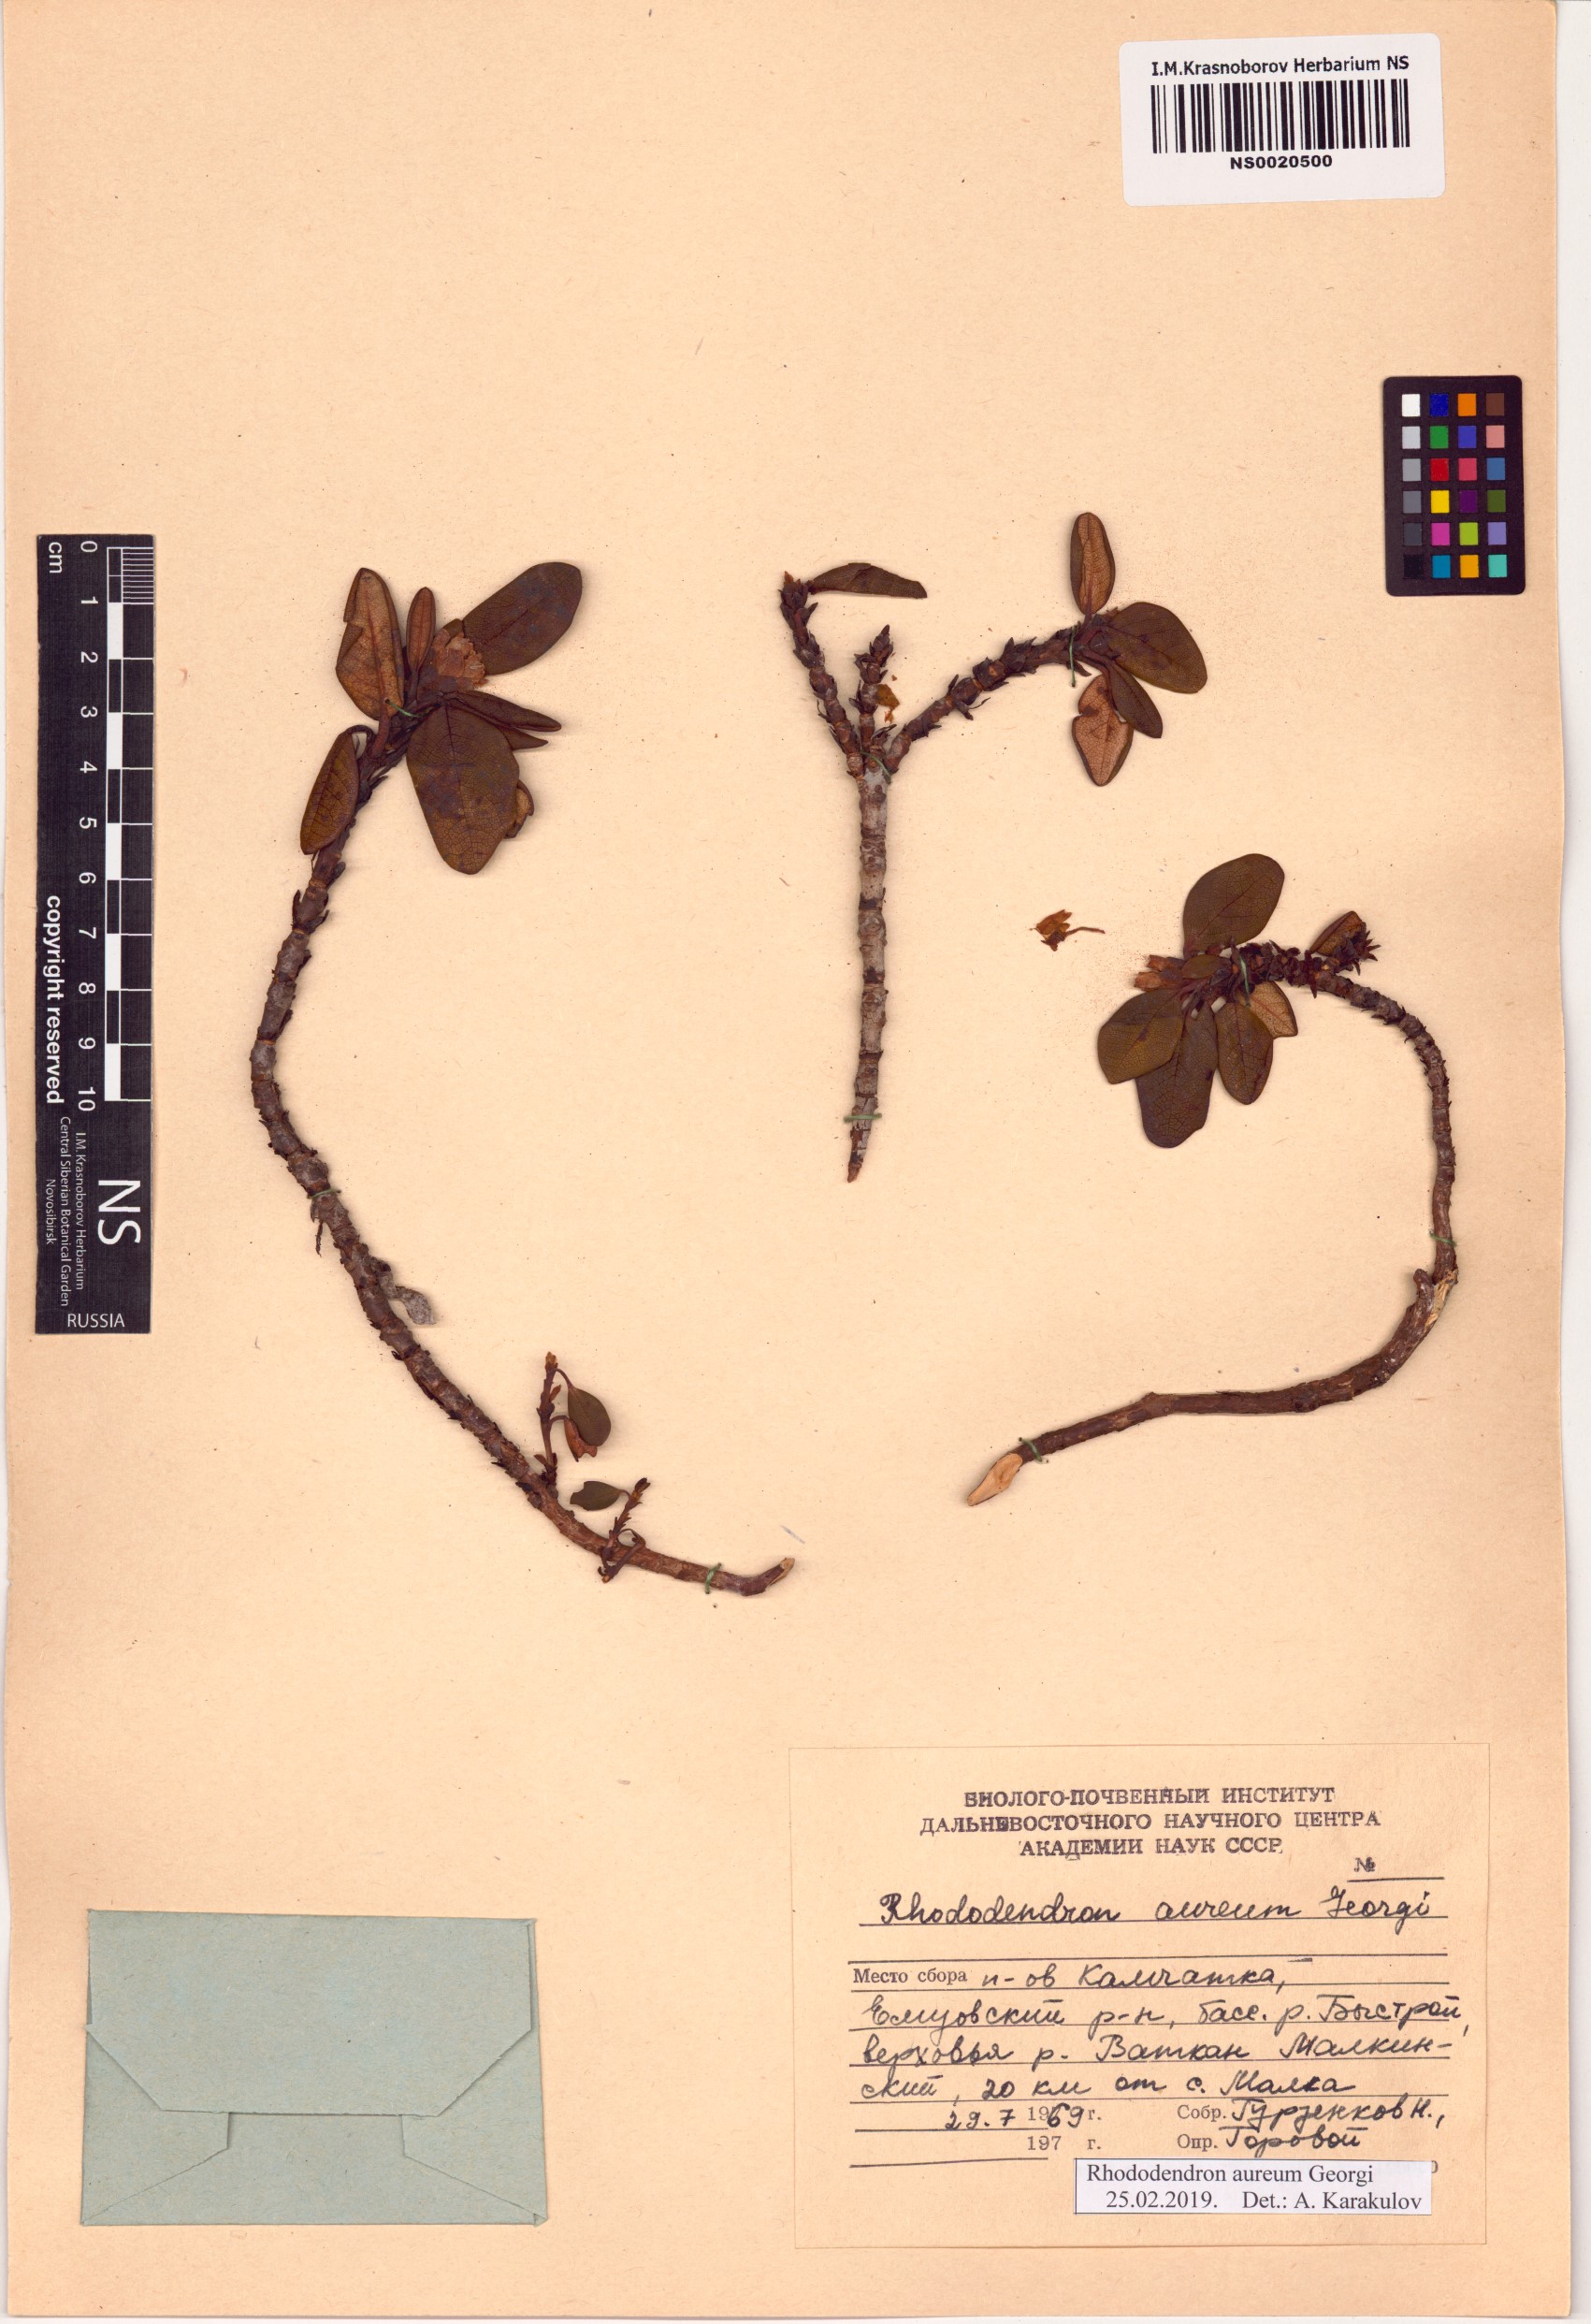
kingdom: Plantae
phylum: Tracheophyta
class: Magnoliopsida
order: Ericales
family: Ericaceae
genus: Rhododendron
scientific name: Rhododendron aureum
